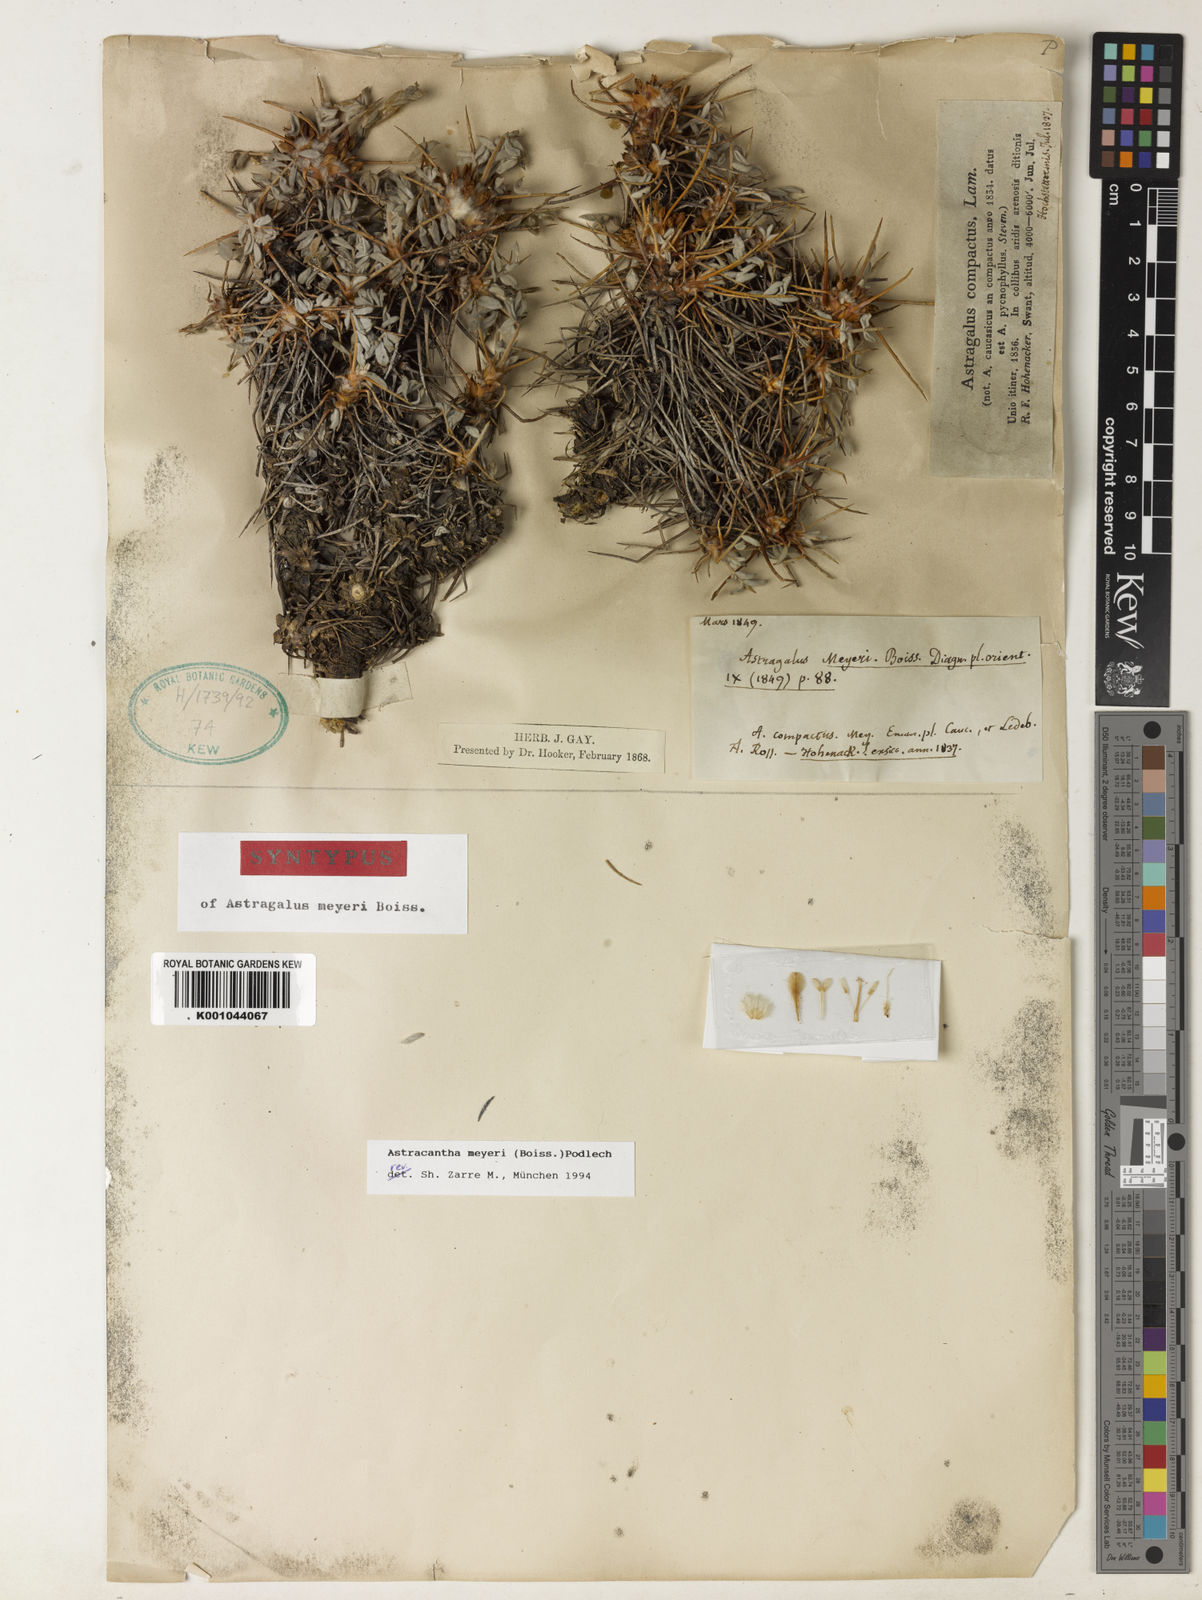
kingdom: Plantae
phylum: Tracheophyta
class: Magnoliopsida
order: Fabales
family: Fabaceae
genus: Astragalus
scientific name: Astragalus meyeri
